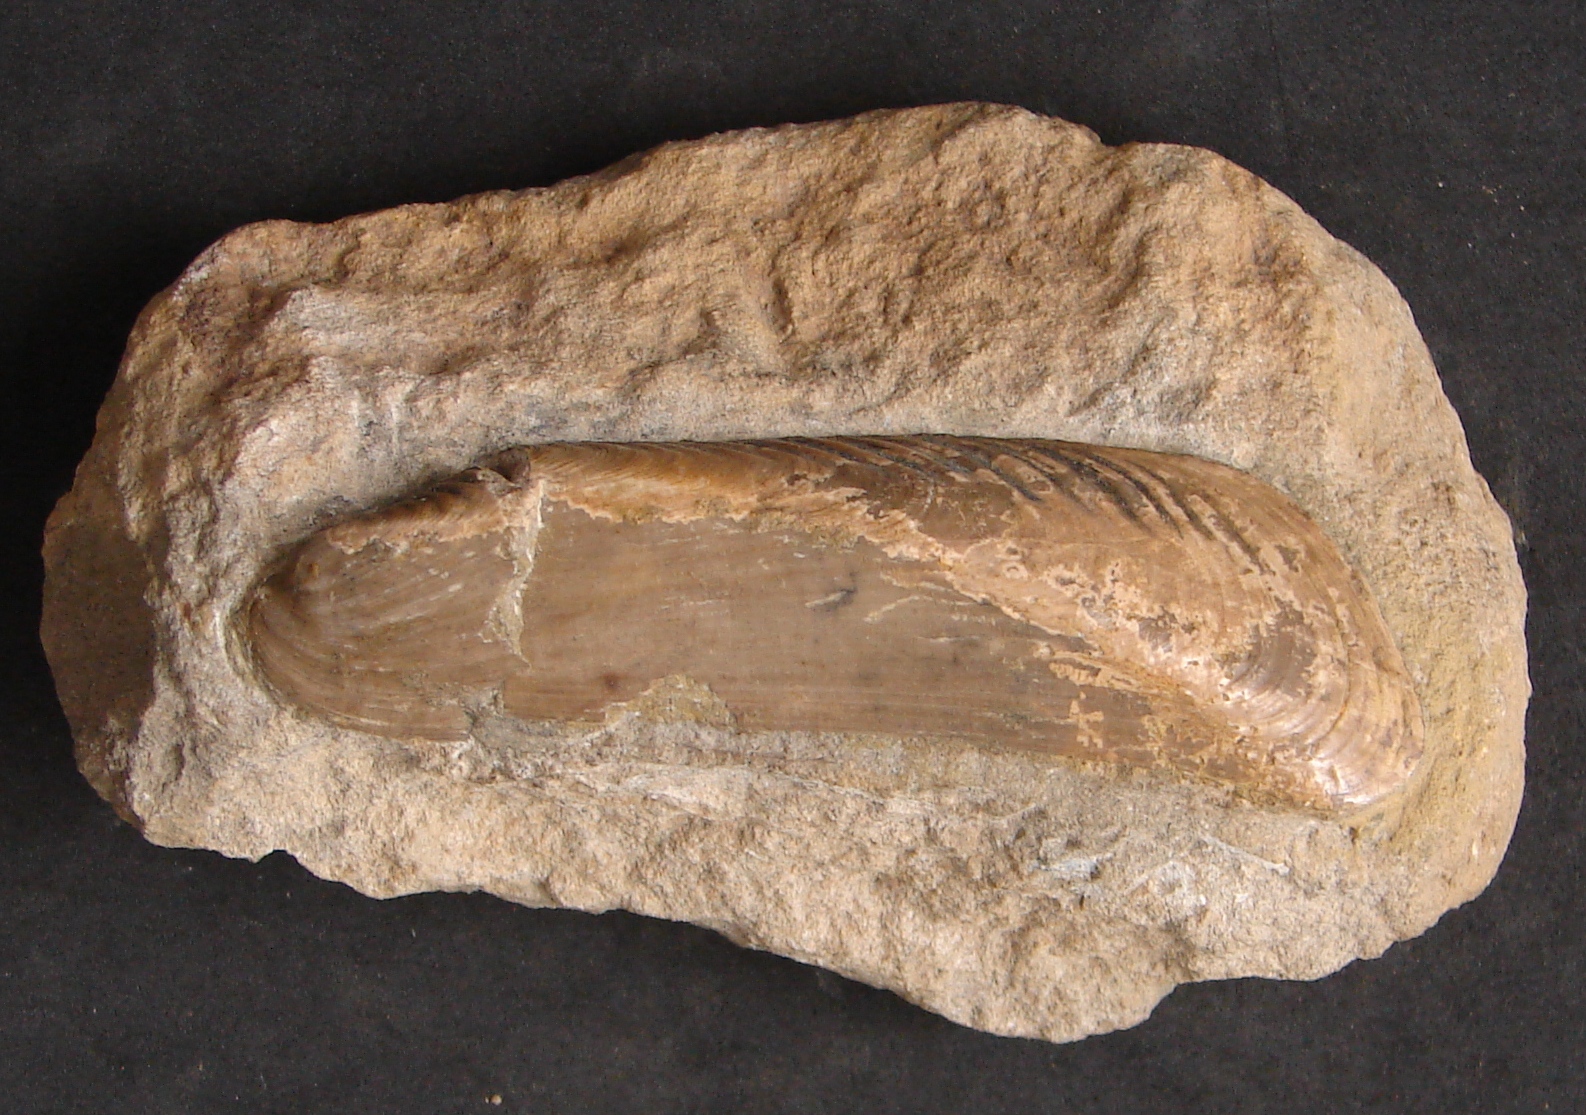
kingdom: Animalia
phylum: Mollusca
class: Bivalvia
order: Mytilida
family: Mytilidae
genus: Inoperna
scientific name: Inoperna
